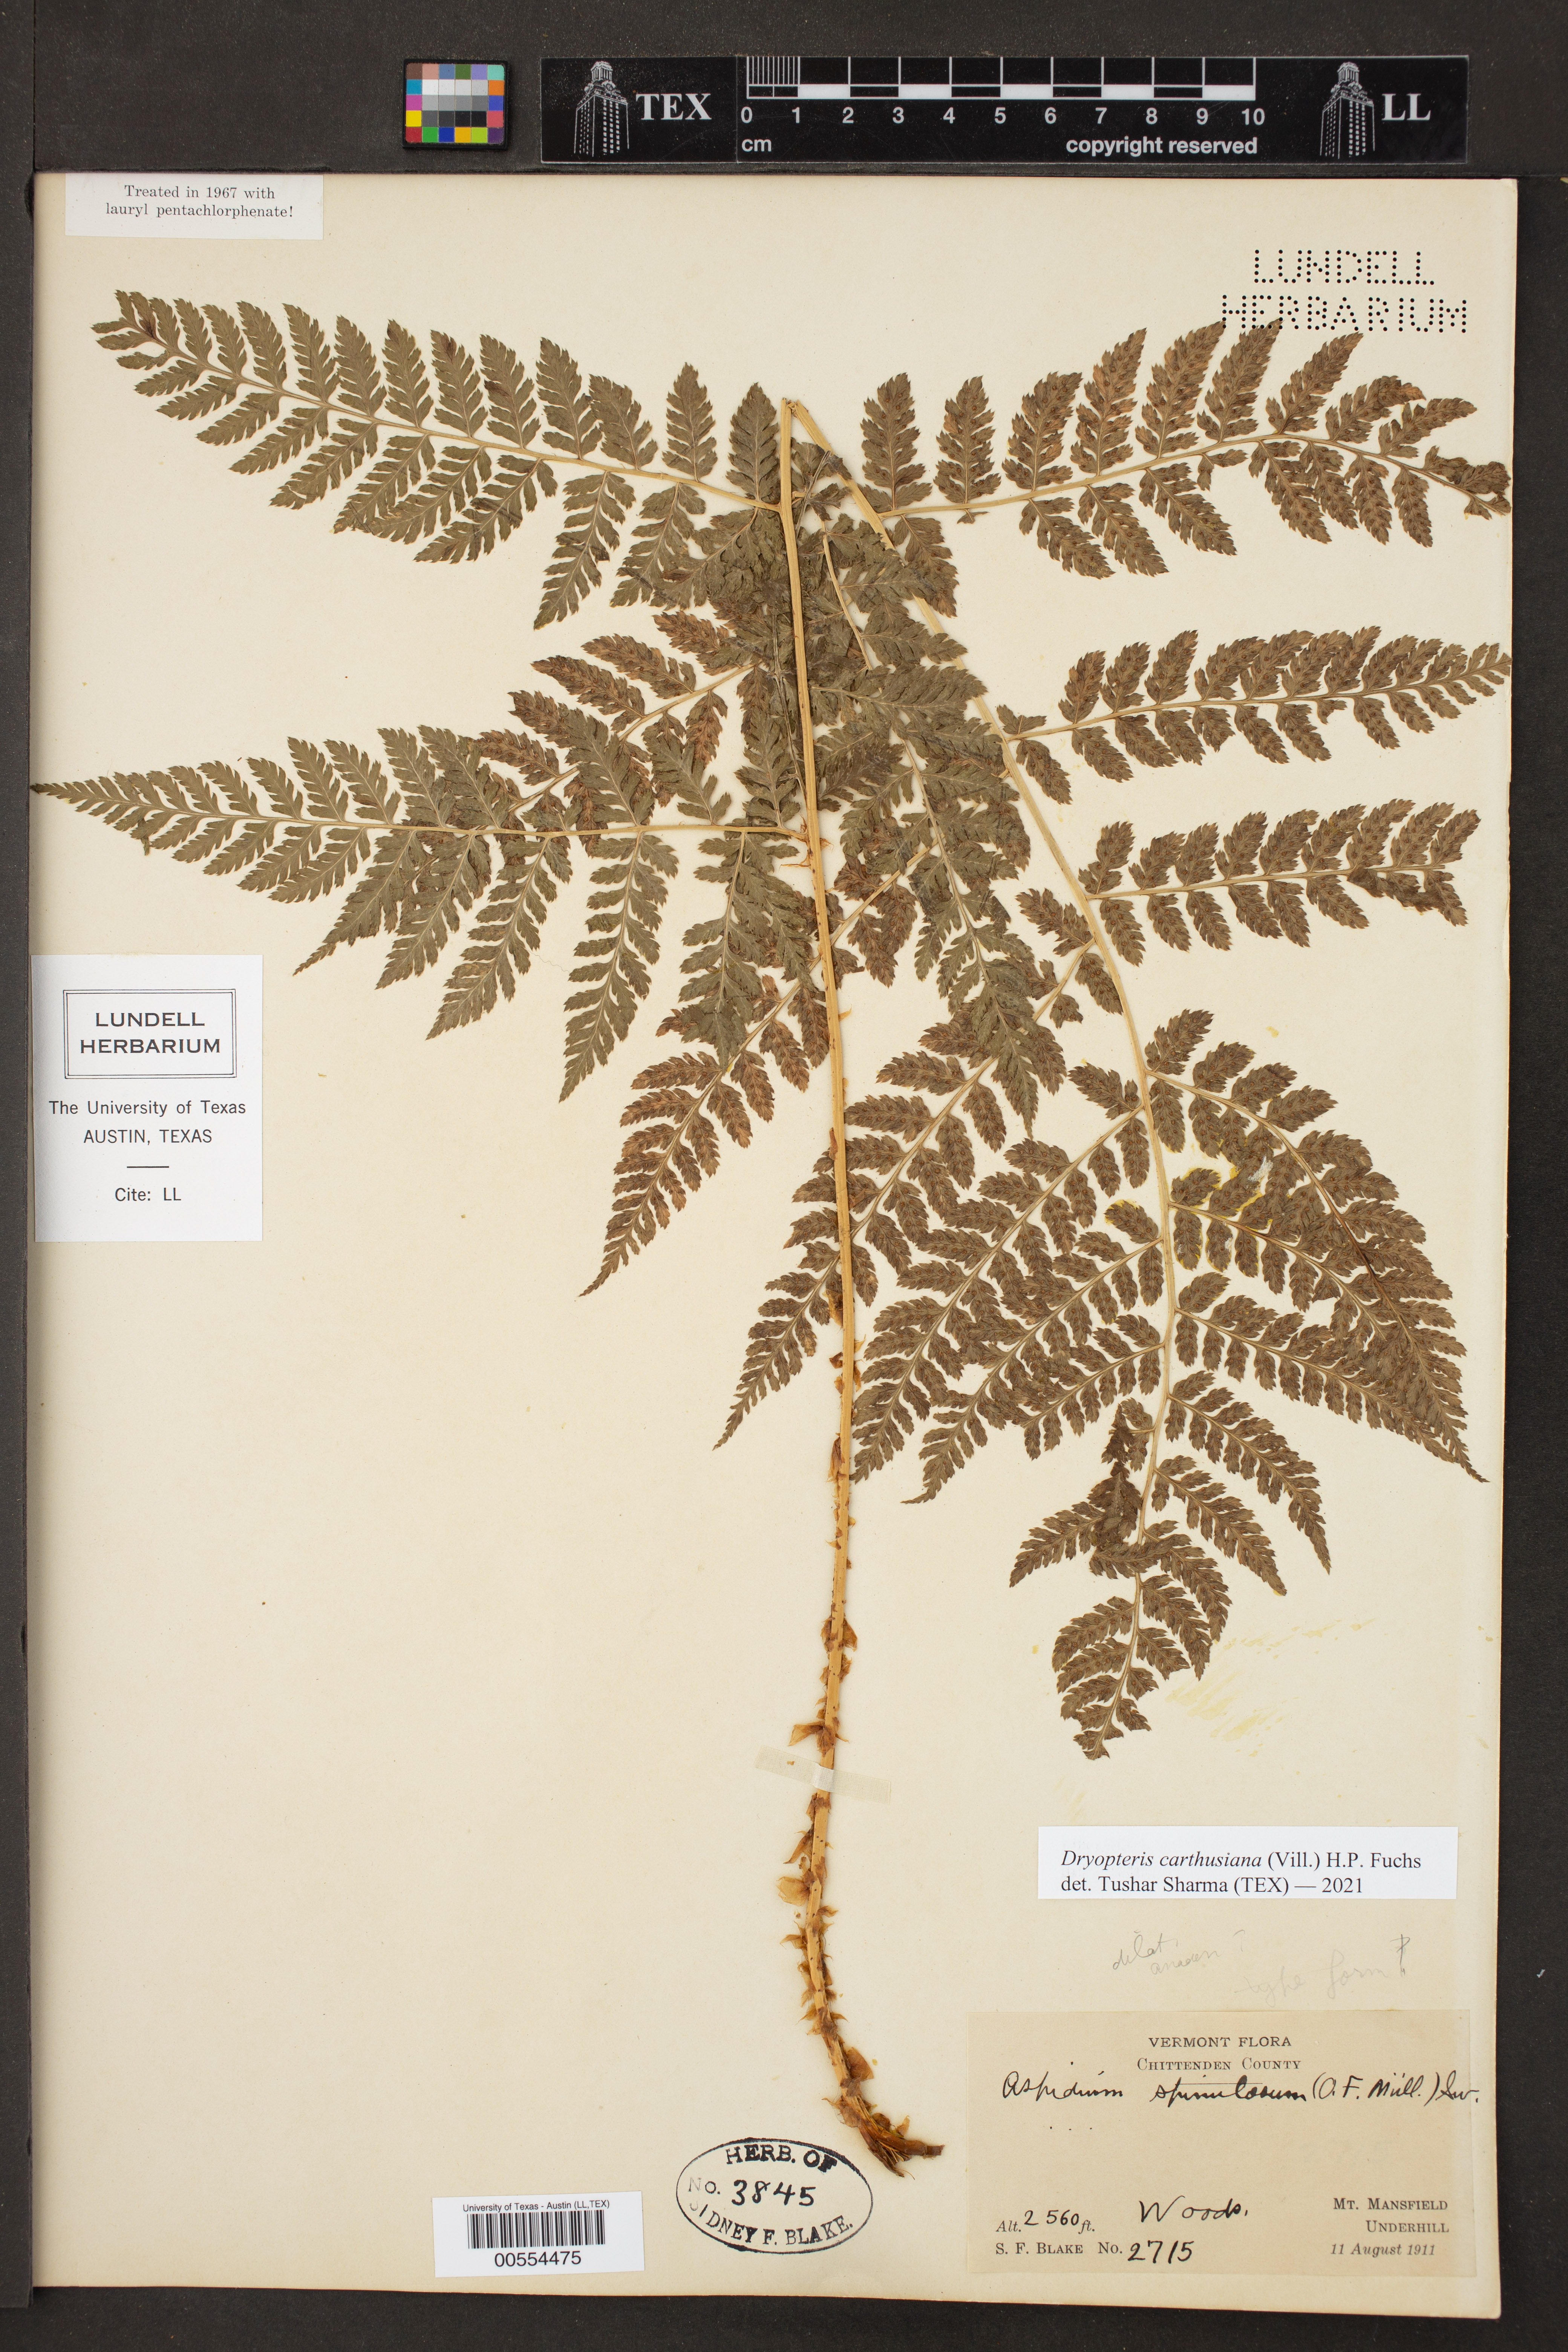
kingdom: Plantae
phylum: Tracheophyta
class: Polypodiopsida
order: Polypodiales
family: Dryopteridaceae
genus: Dryopteris
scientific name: Dryopteris carthusiana
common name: Narrow buckler-fern
